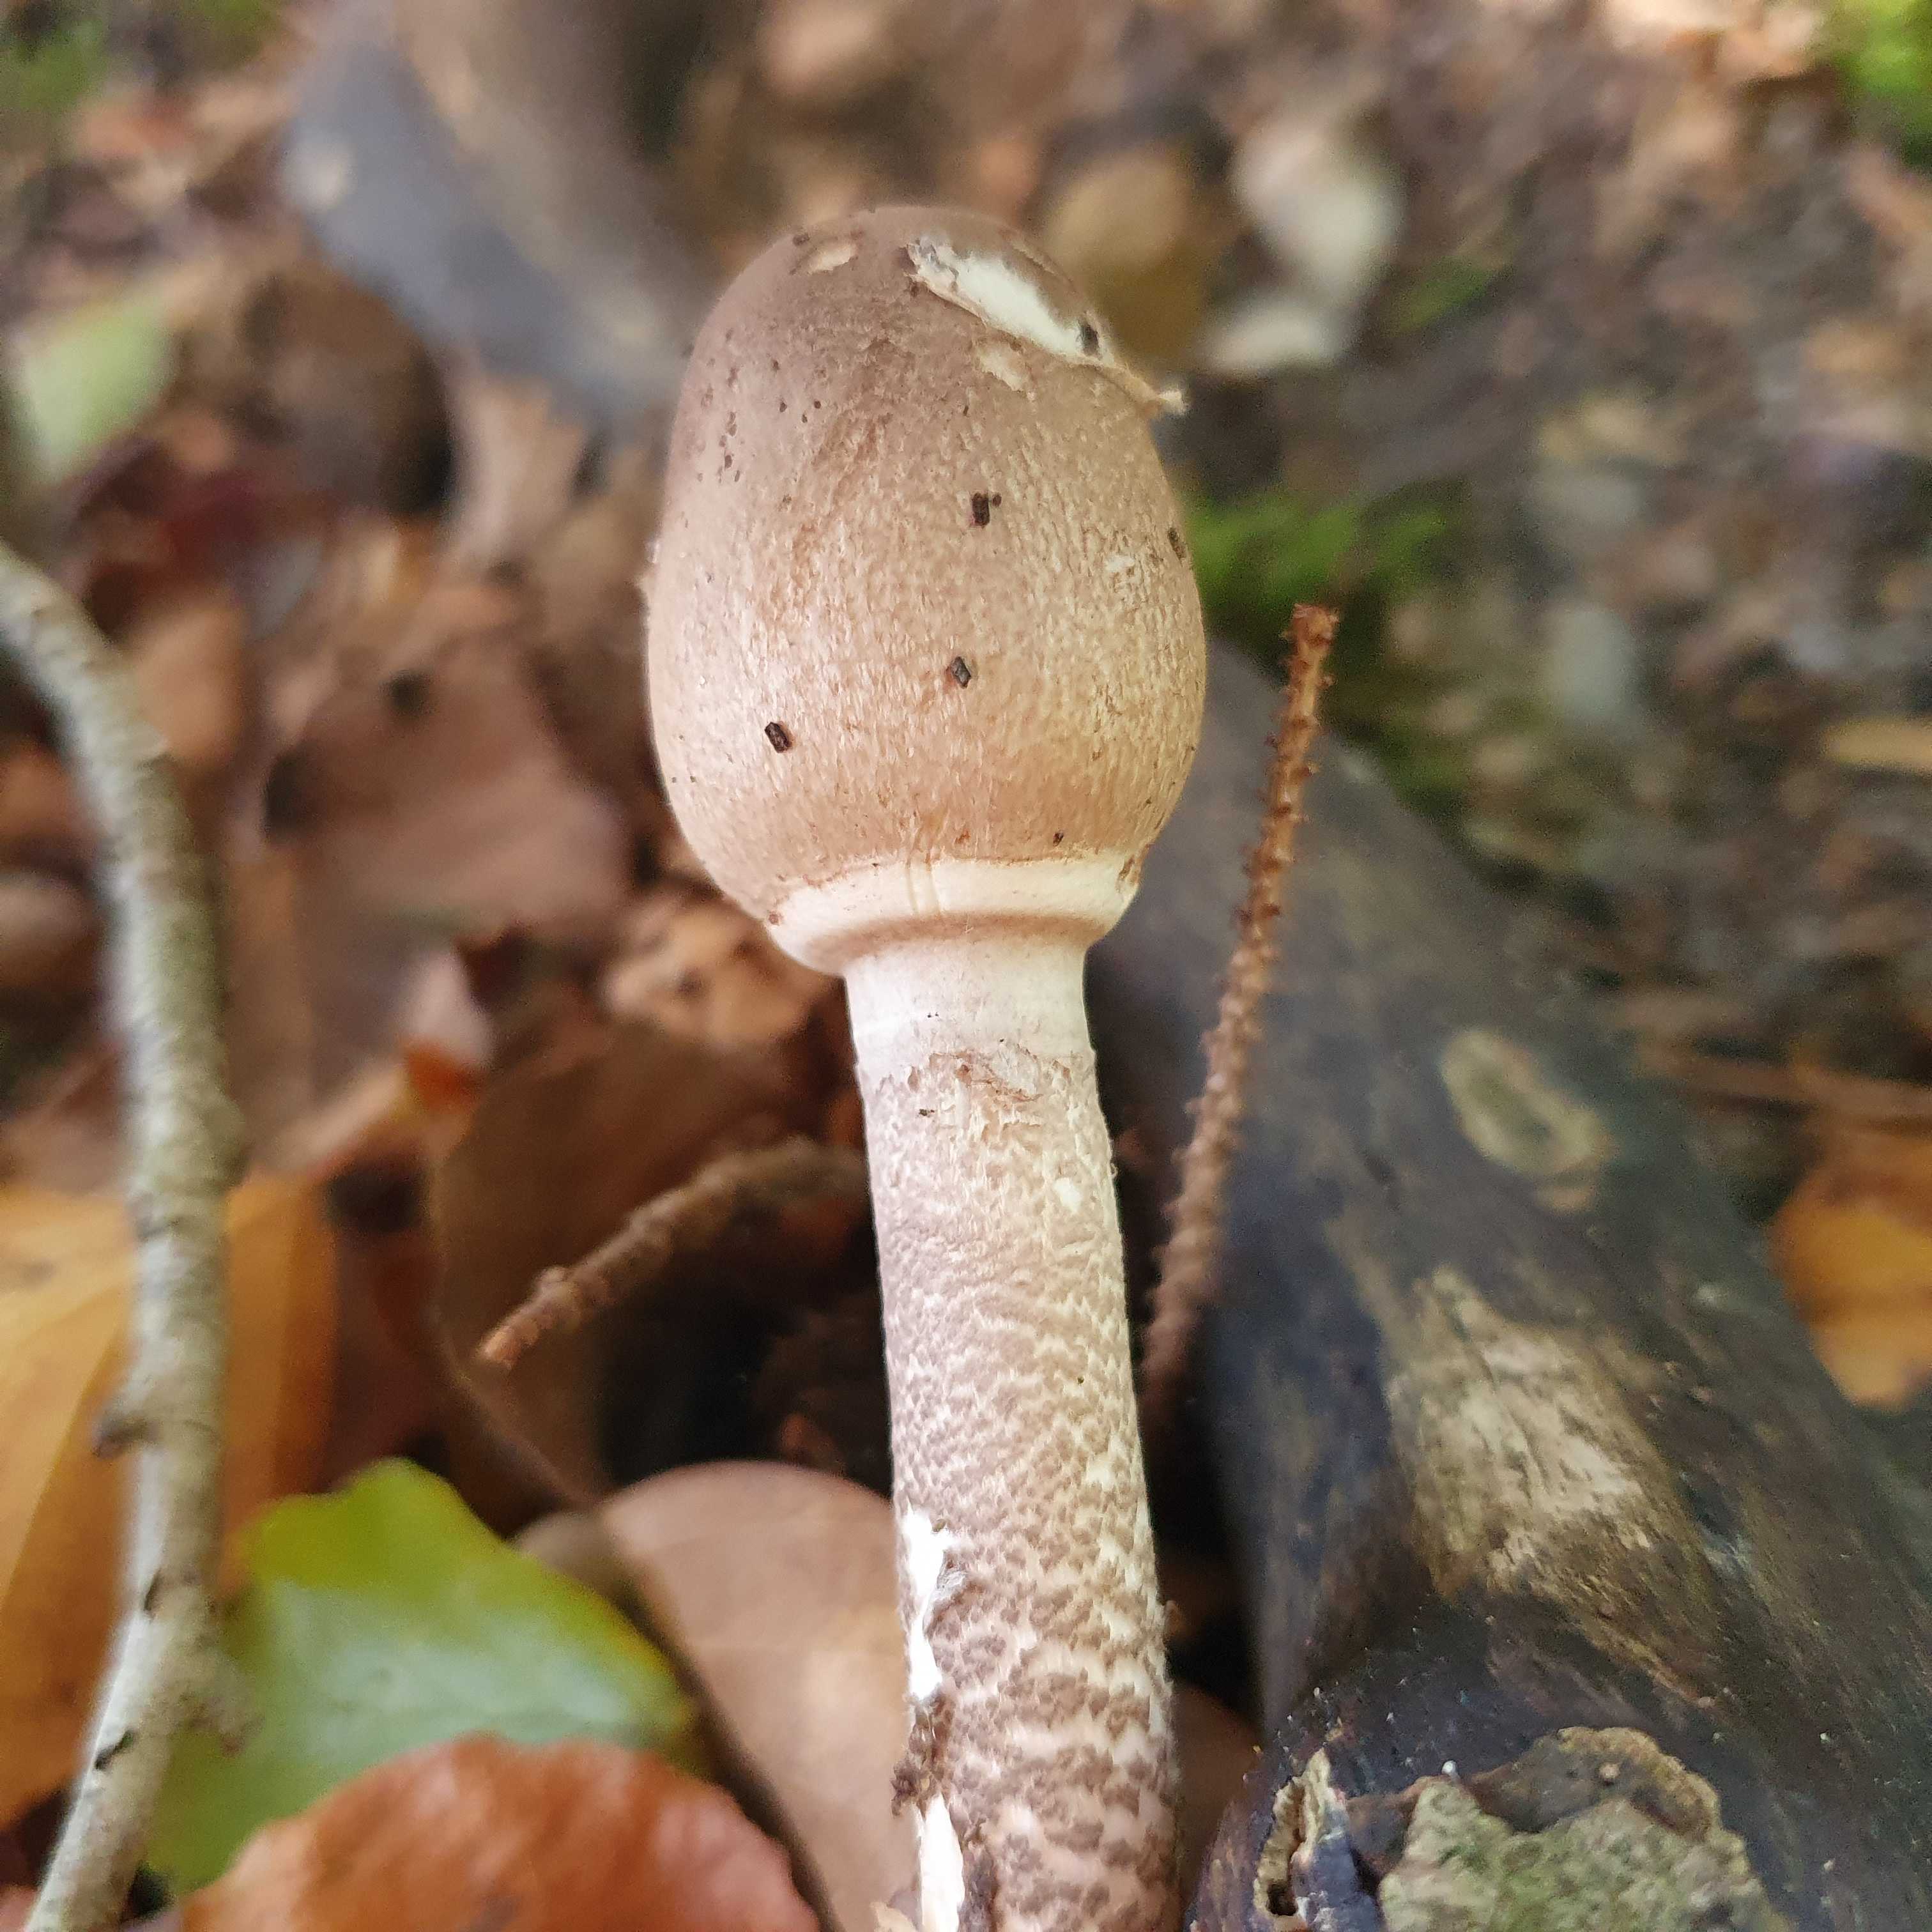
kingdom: Fungi
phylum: Basidiomycota
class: Agaricomycetes
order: Agaricales
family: Agaricaceae
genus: Macrolepiota
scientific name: Macrolepiota procera
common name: stor kæmpeparasolhat
